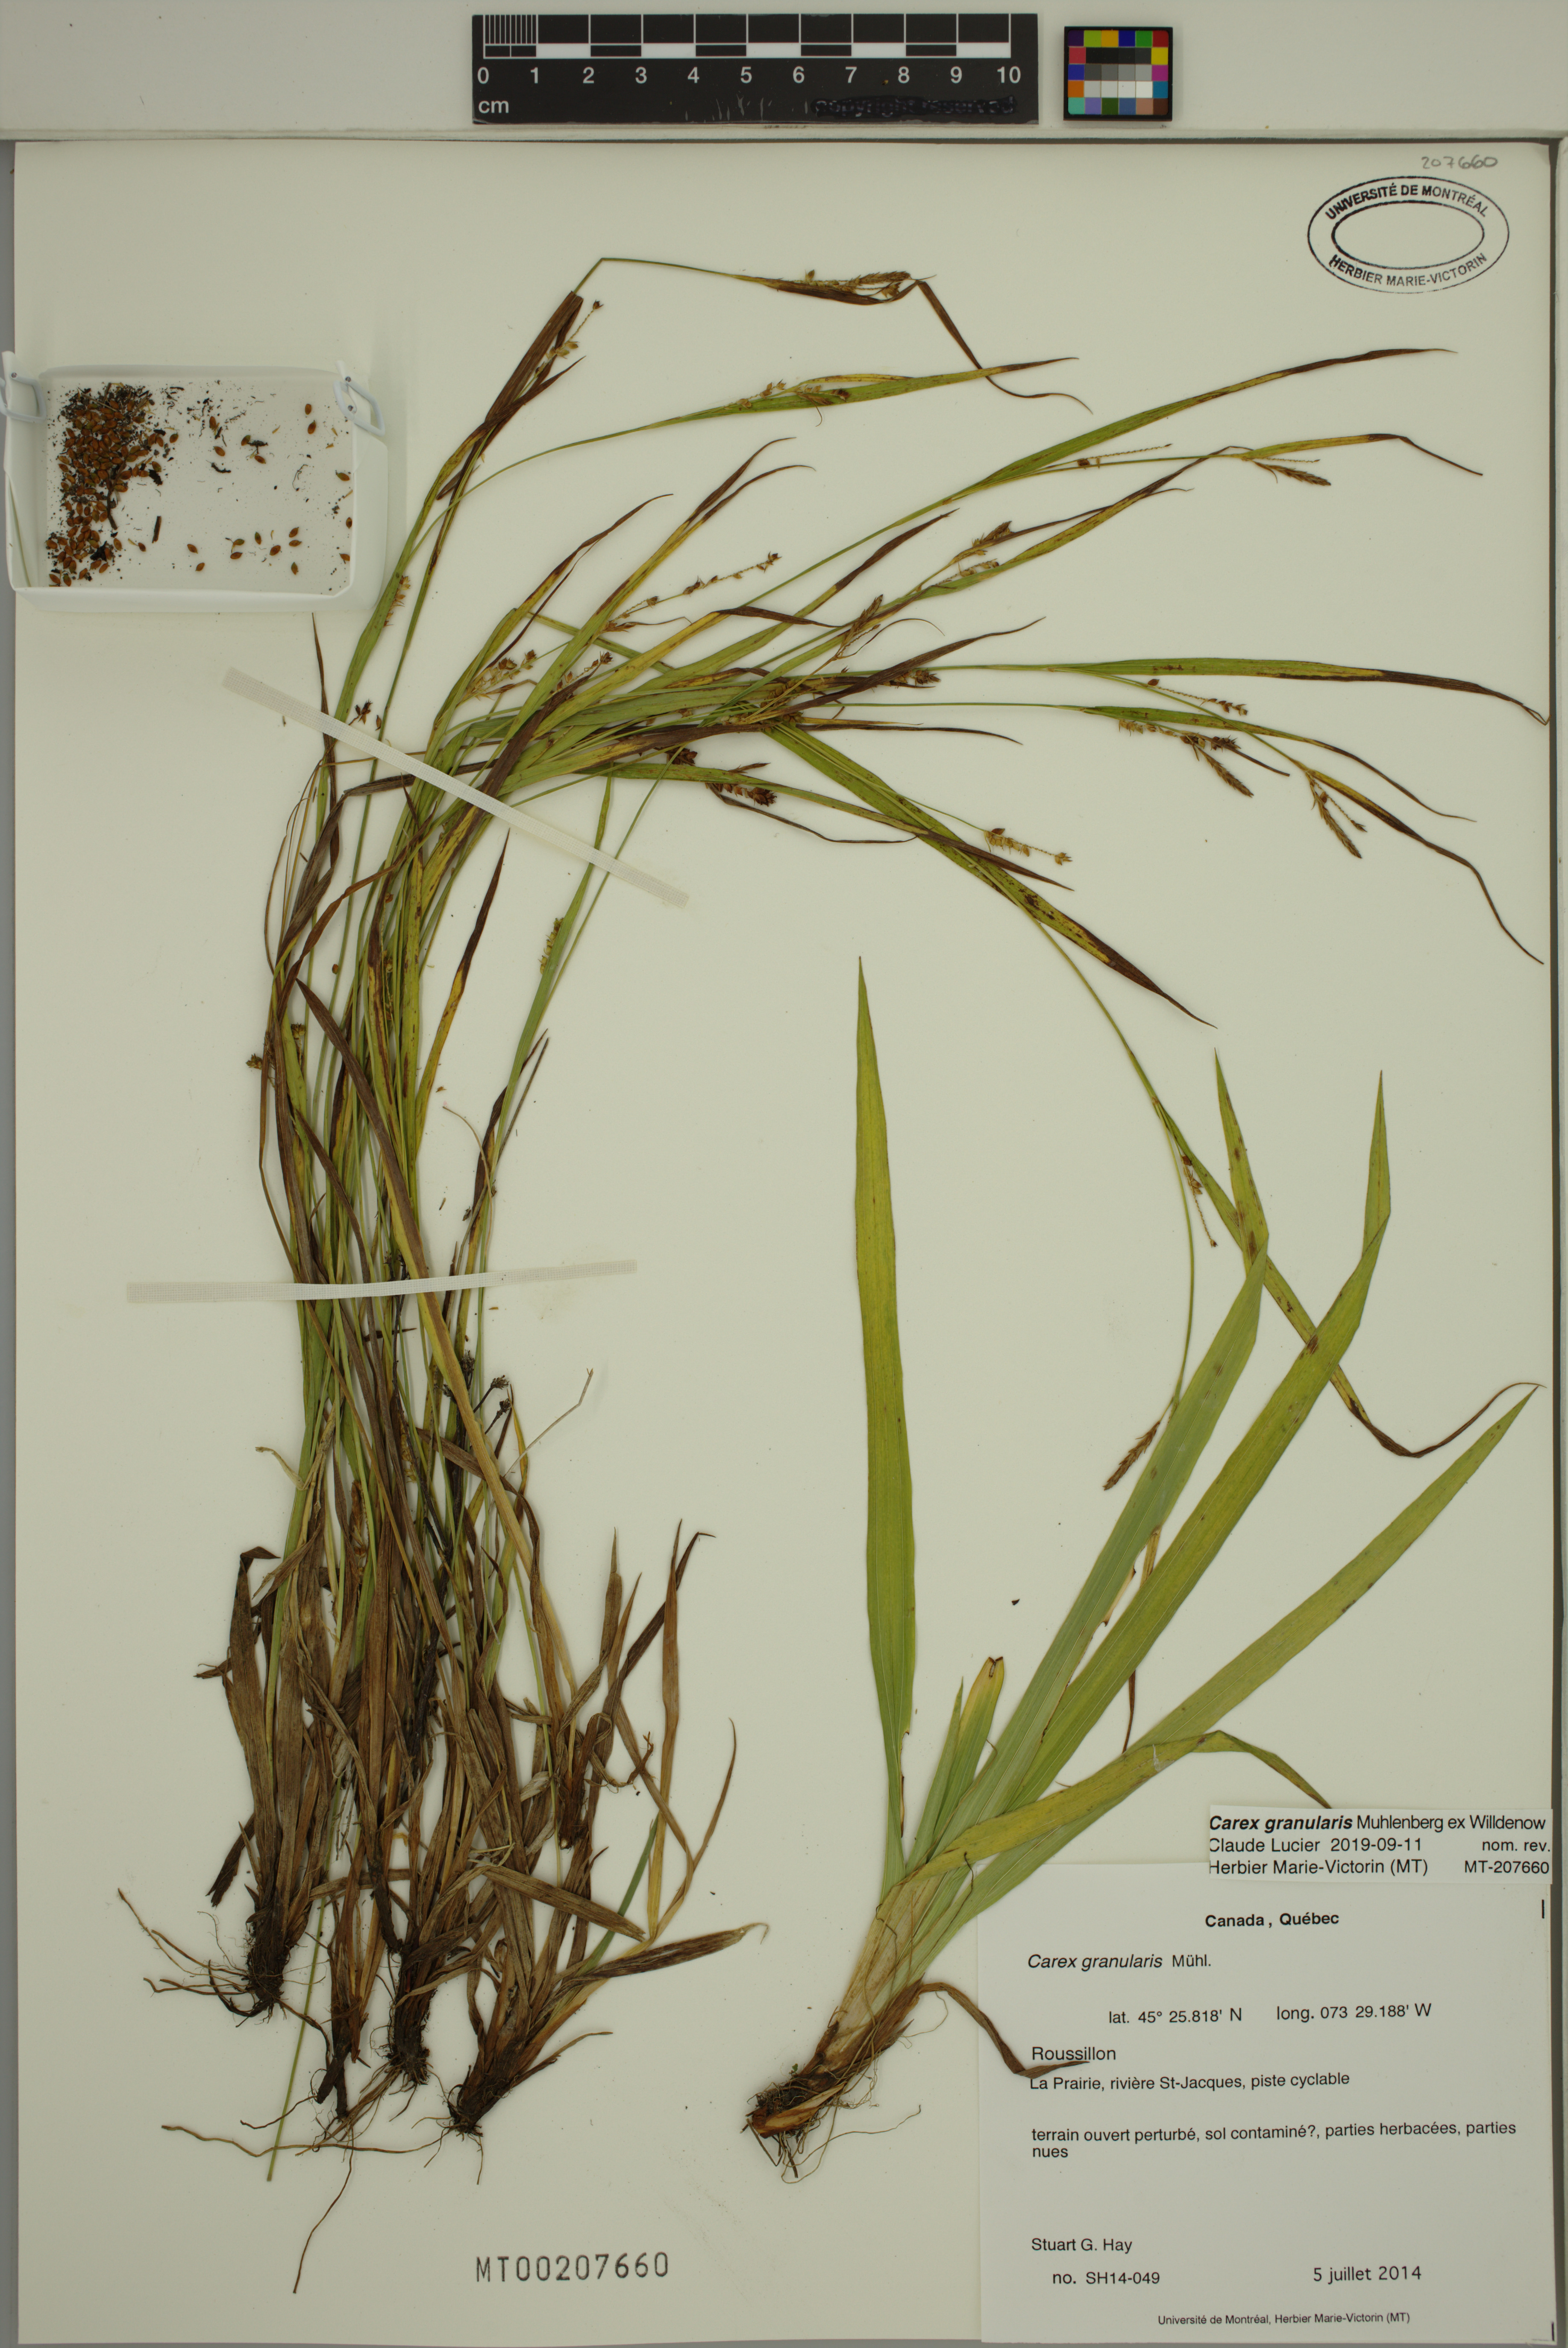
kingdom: Plantae
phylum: Tracheophyta
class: Liliopsida
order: Poales
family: Cyperaceae
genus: Carex
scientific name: Carex granularis
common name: Granular sedge
